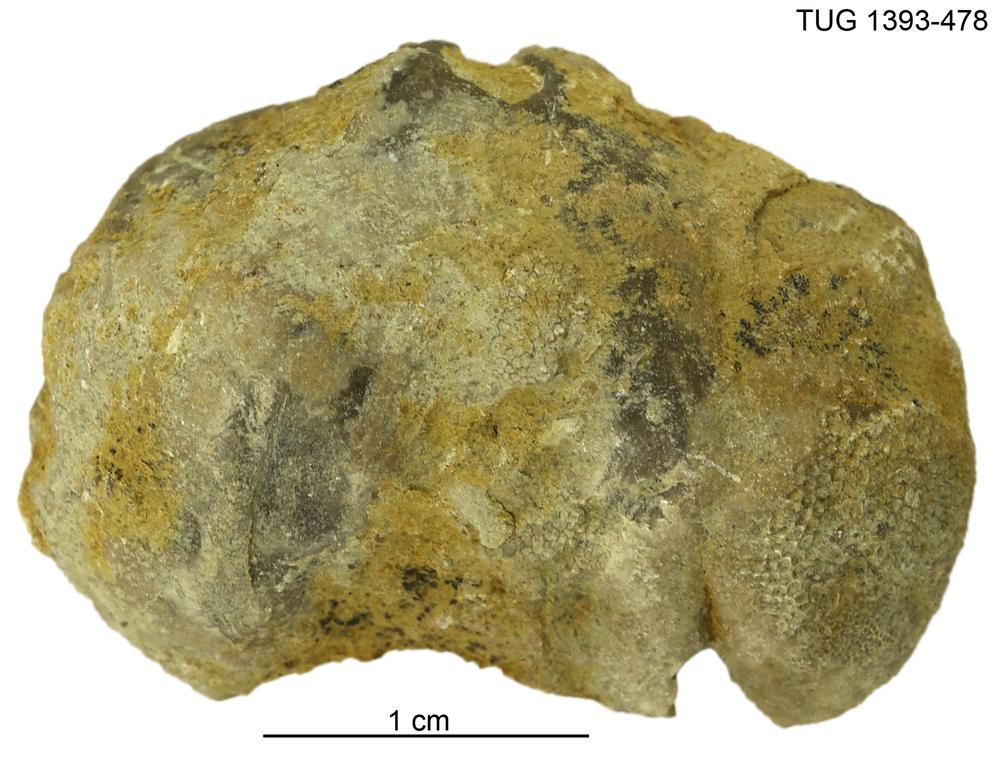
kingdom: Animalia
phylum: Brachiopoda
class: Rhynchonellata
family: Plectorthidae
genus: Platystrophia
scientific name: Platystrophia
